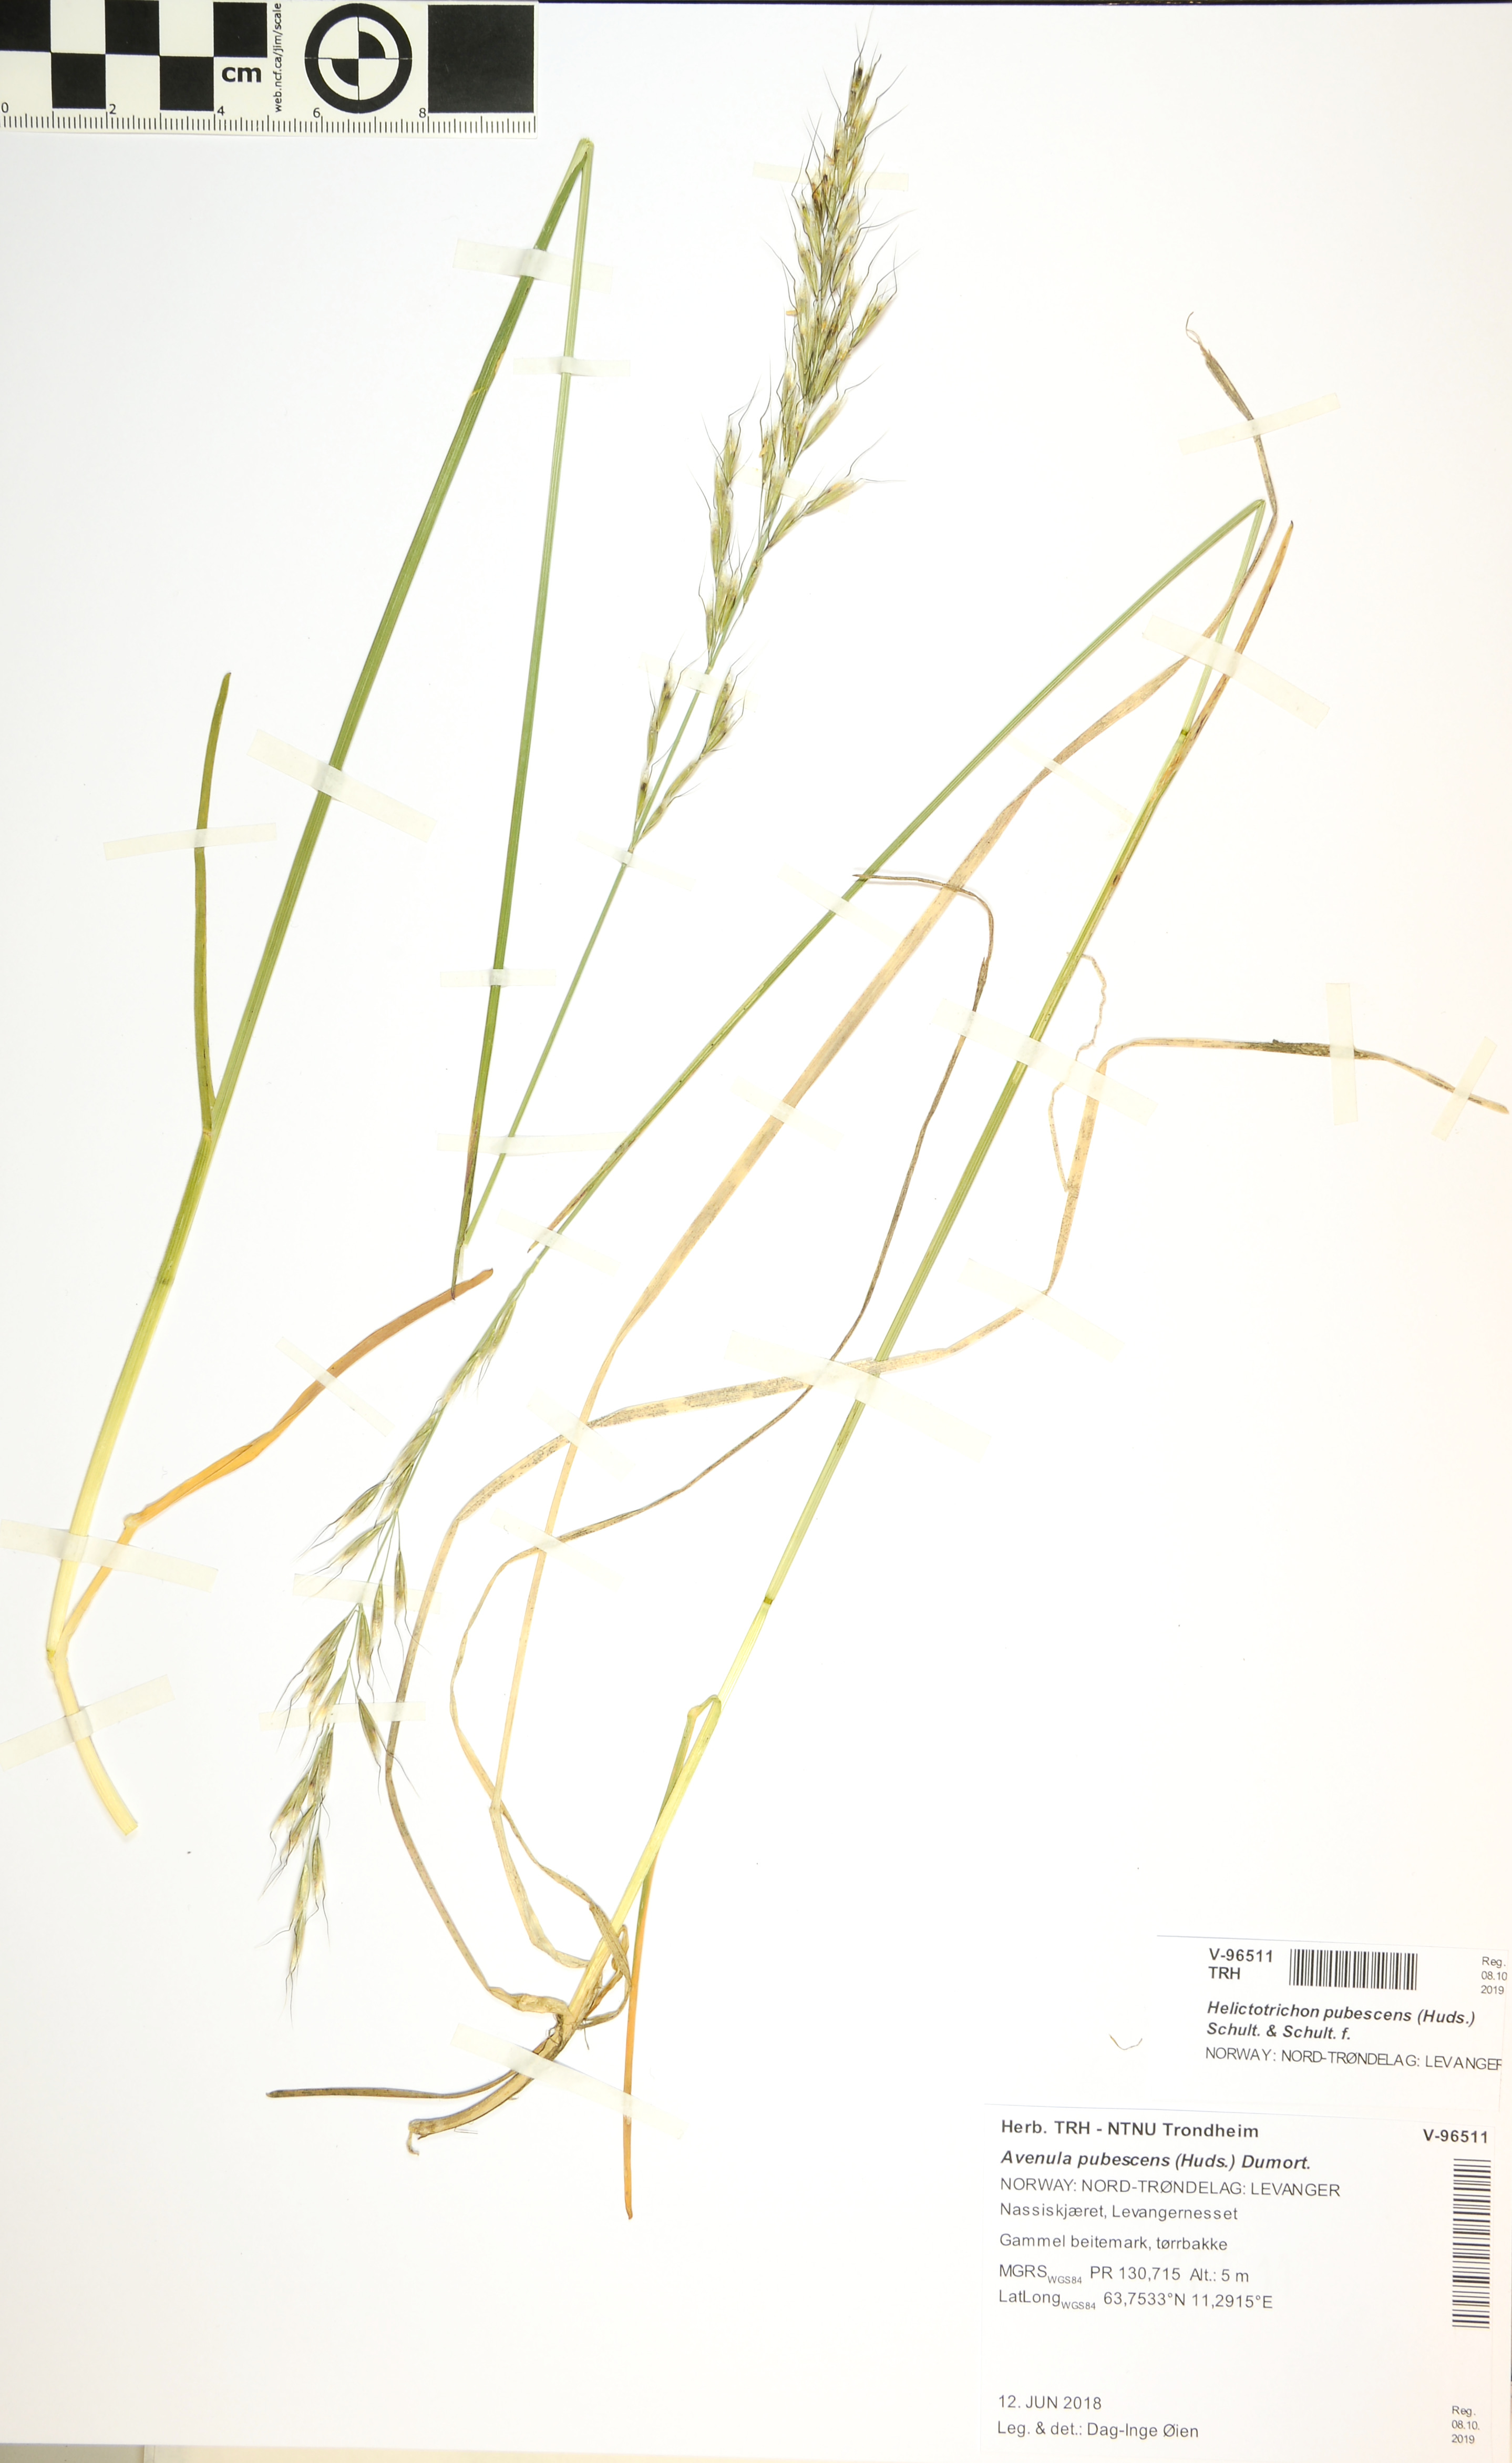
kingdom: Plantae
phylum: Tracheophyta
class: Liliopsida
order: Poales
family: Poaceae
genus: Avenula
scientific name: Avenula pubescens
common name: Downy alpine oatgrass
